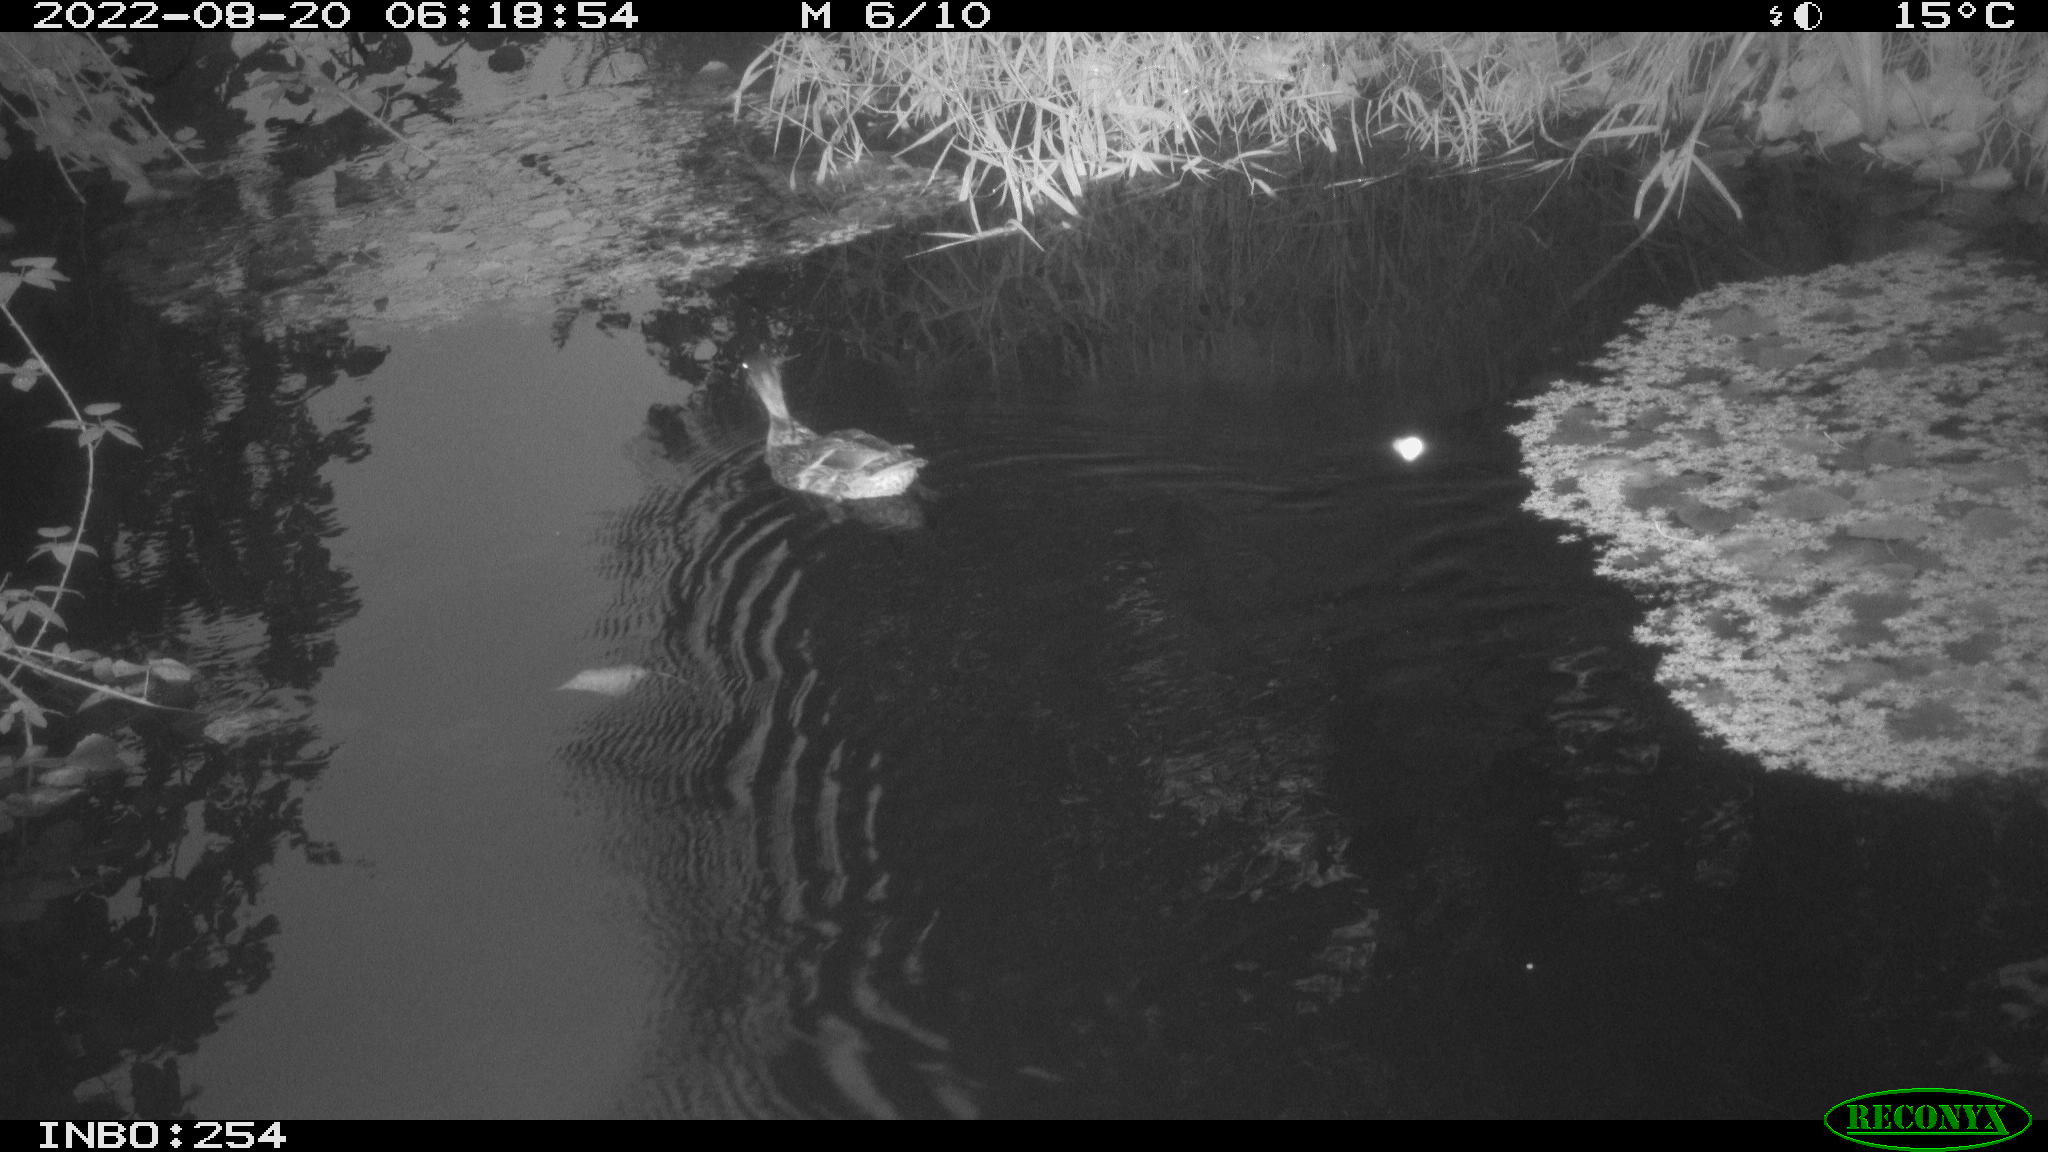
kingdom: Animalia
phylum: Chordata
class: Aves
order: Anseriformes
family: Anatidae
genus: Anas
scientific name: Anas platyrhynchos
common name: Mallard
